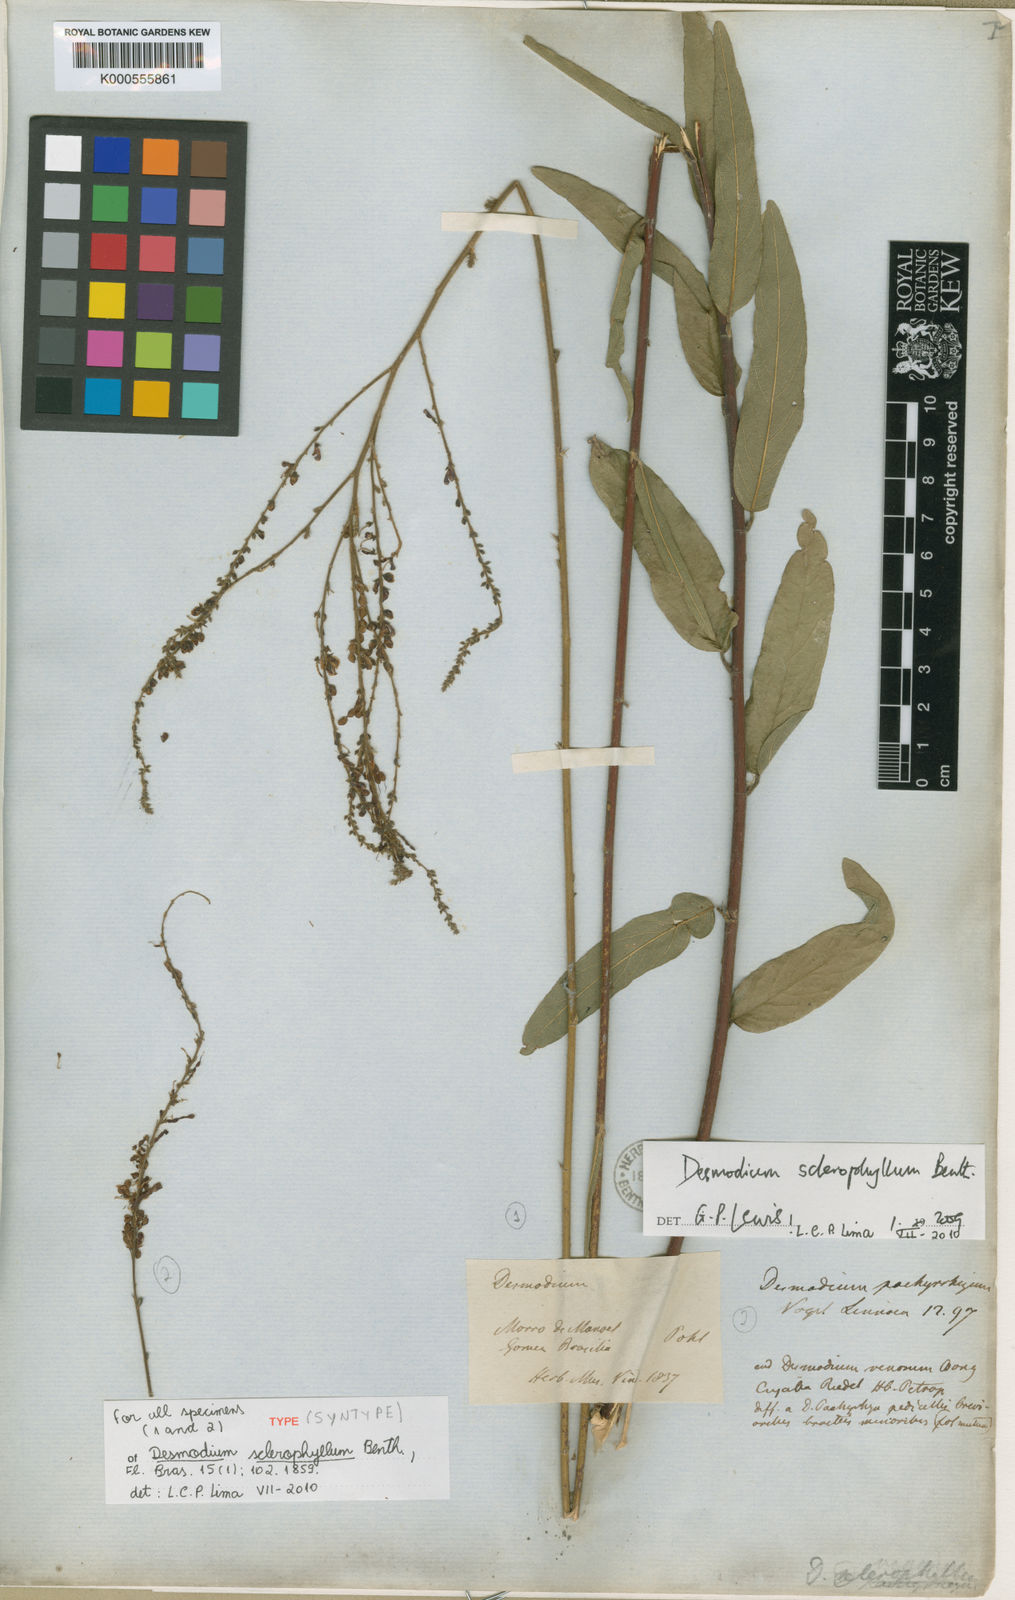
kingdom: Plantae
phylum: Tracheophyta
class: Magnoliopsida
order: Fabales
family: Fabaceae
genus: Desmodium
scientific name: Desmodium sclerophyllum
